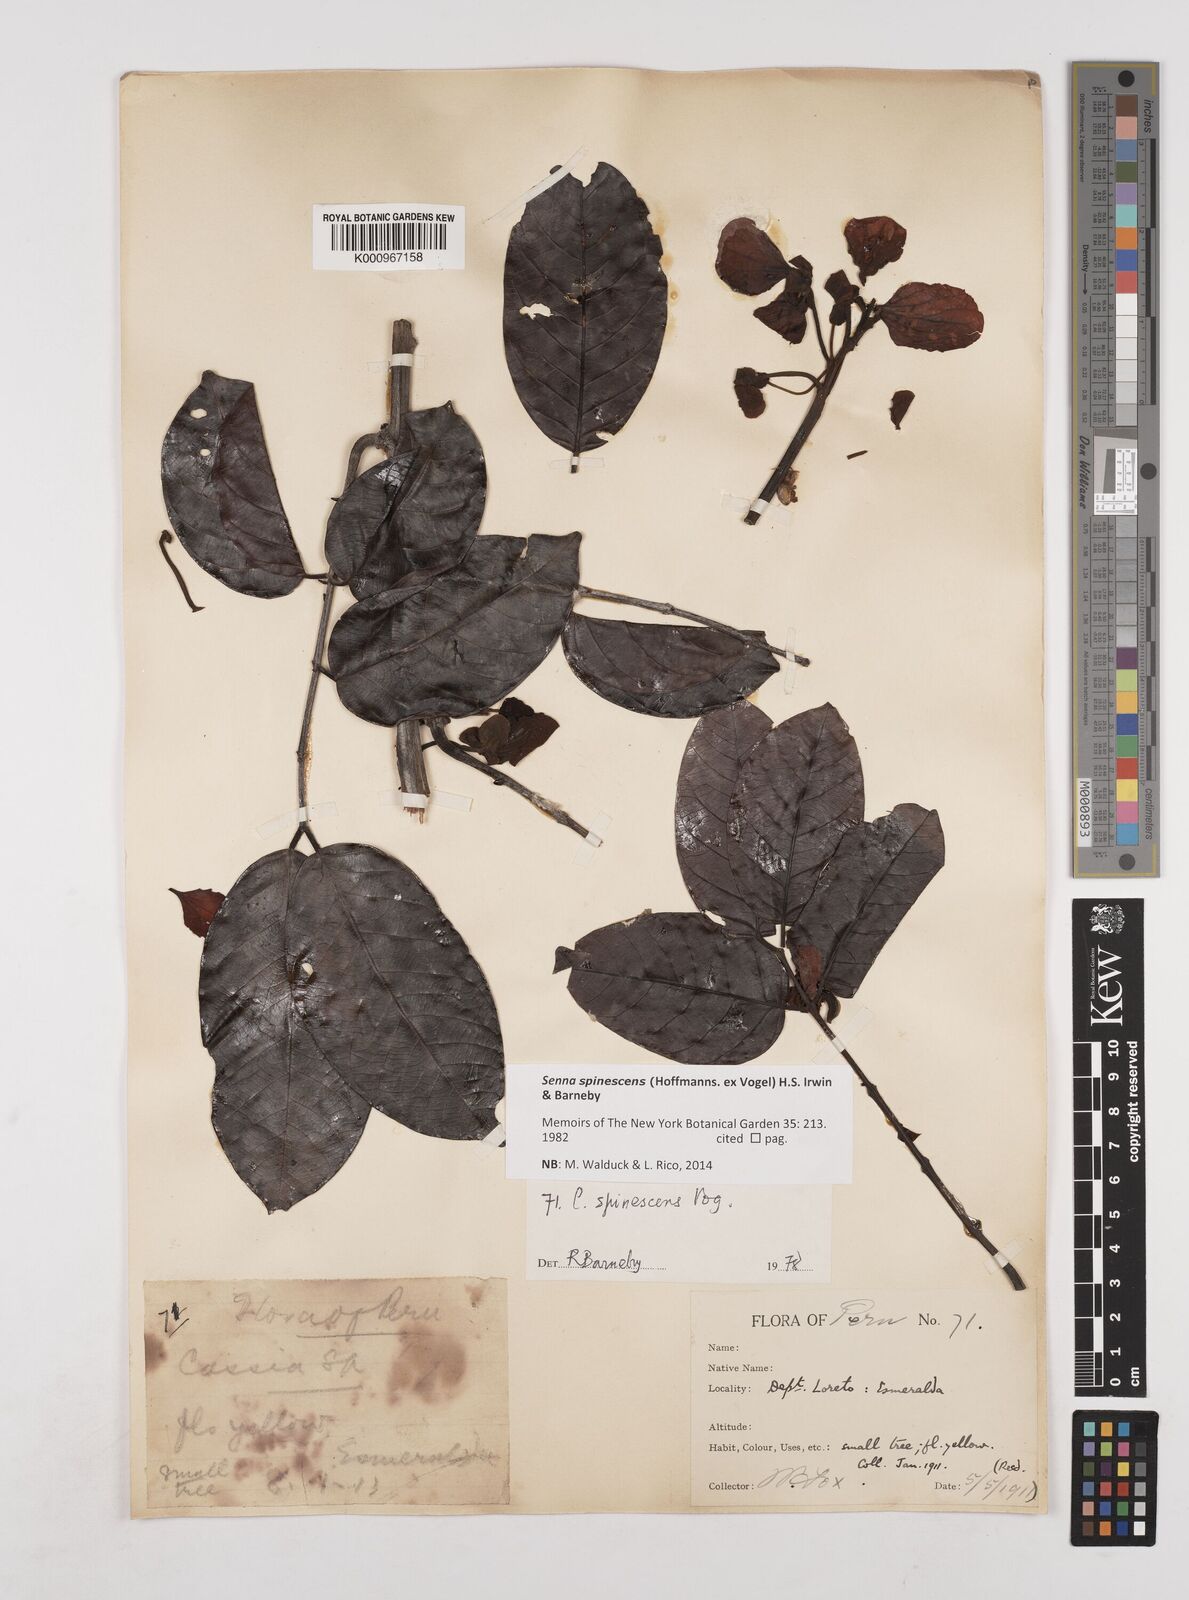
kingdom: Plantae
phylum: Tracheophyta
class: Magnoliopsida
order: Fabales
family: Fabaceae
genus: Senna
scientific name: Senna spinescens
